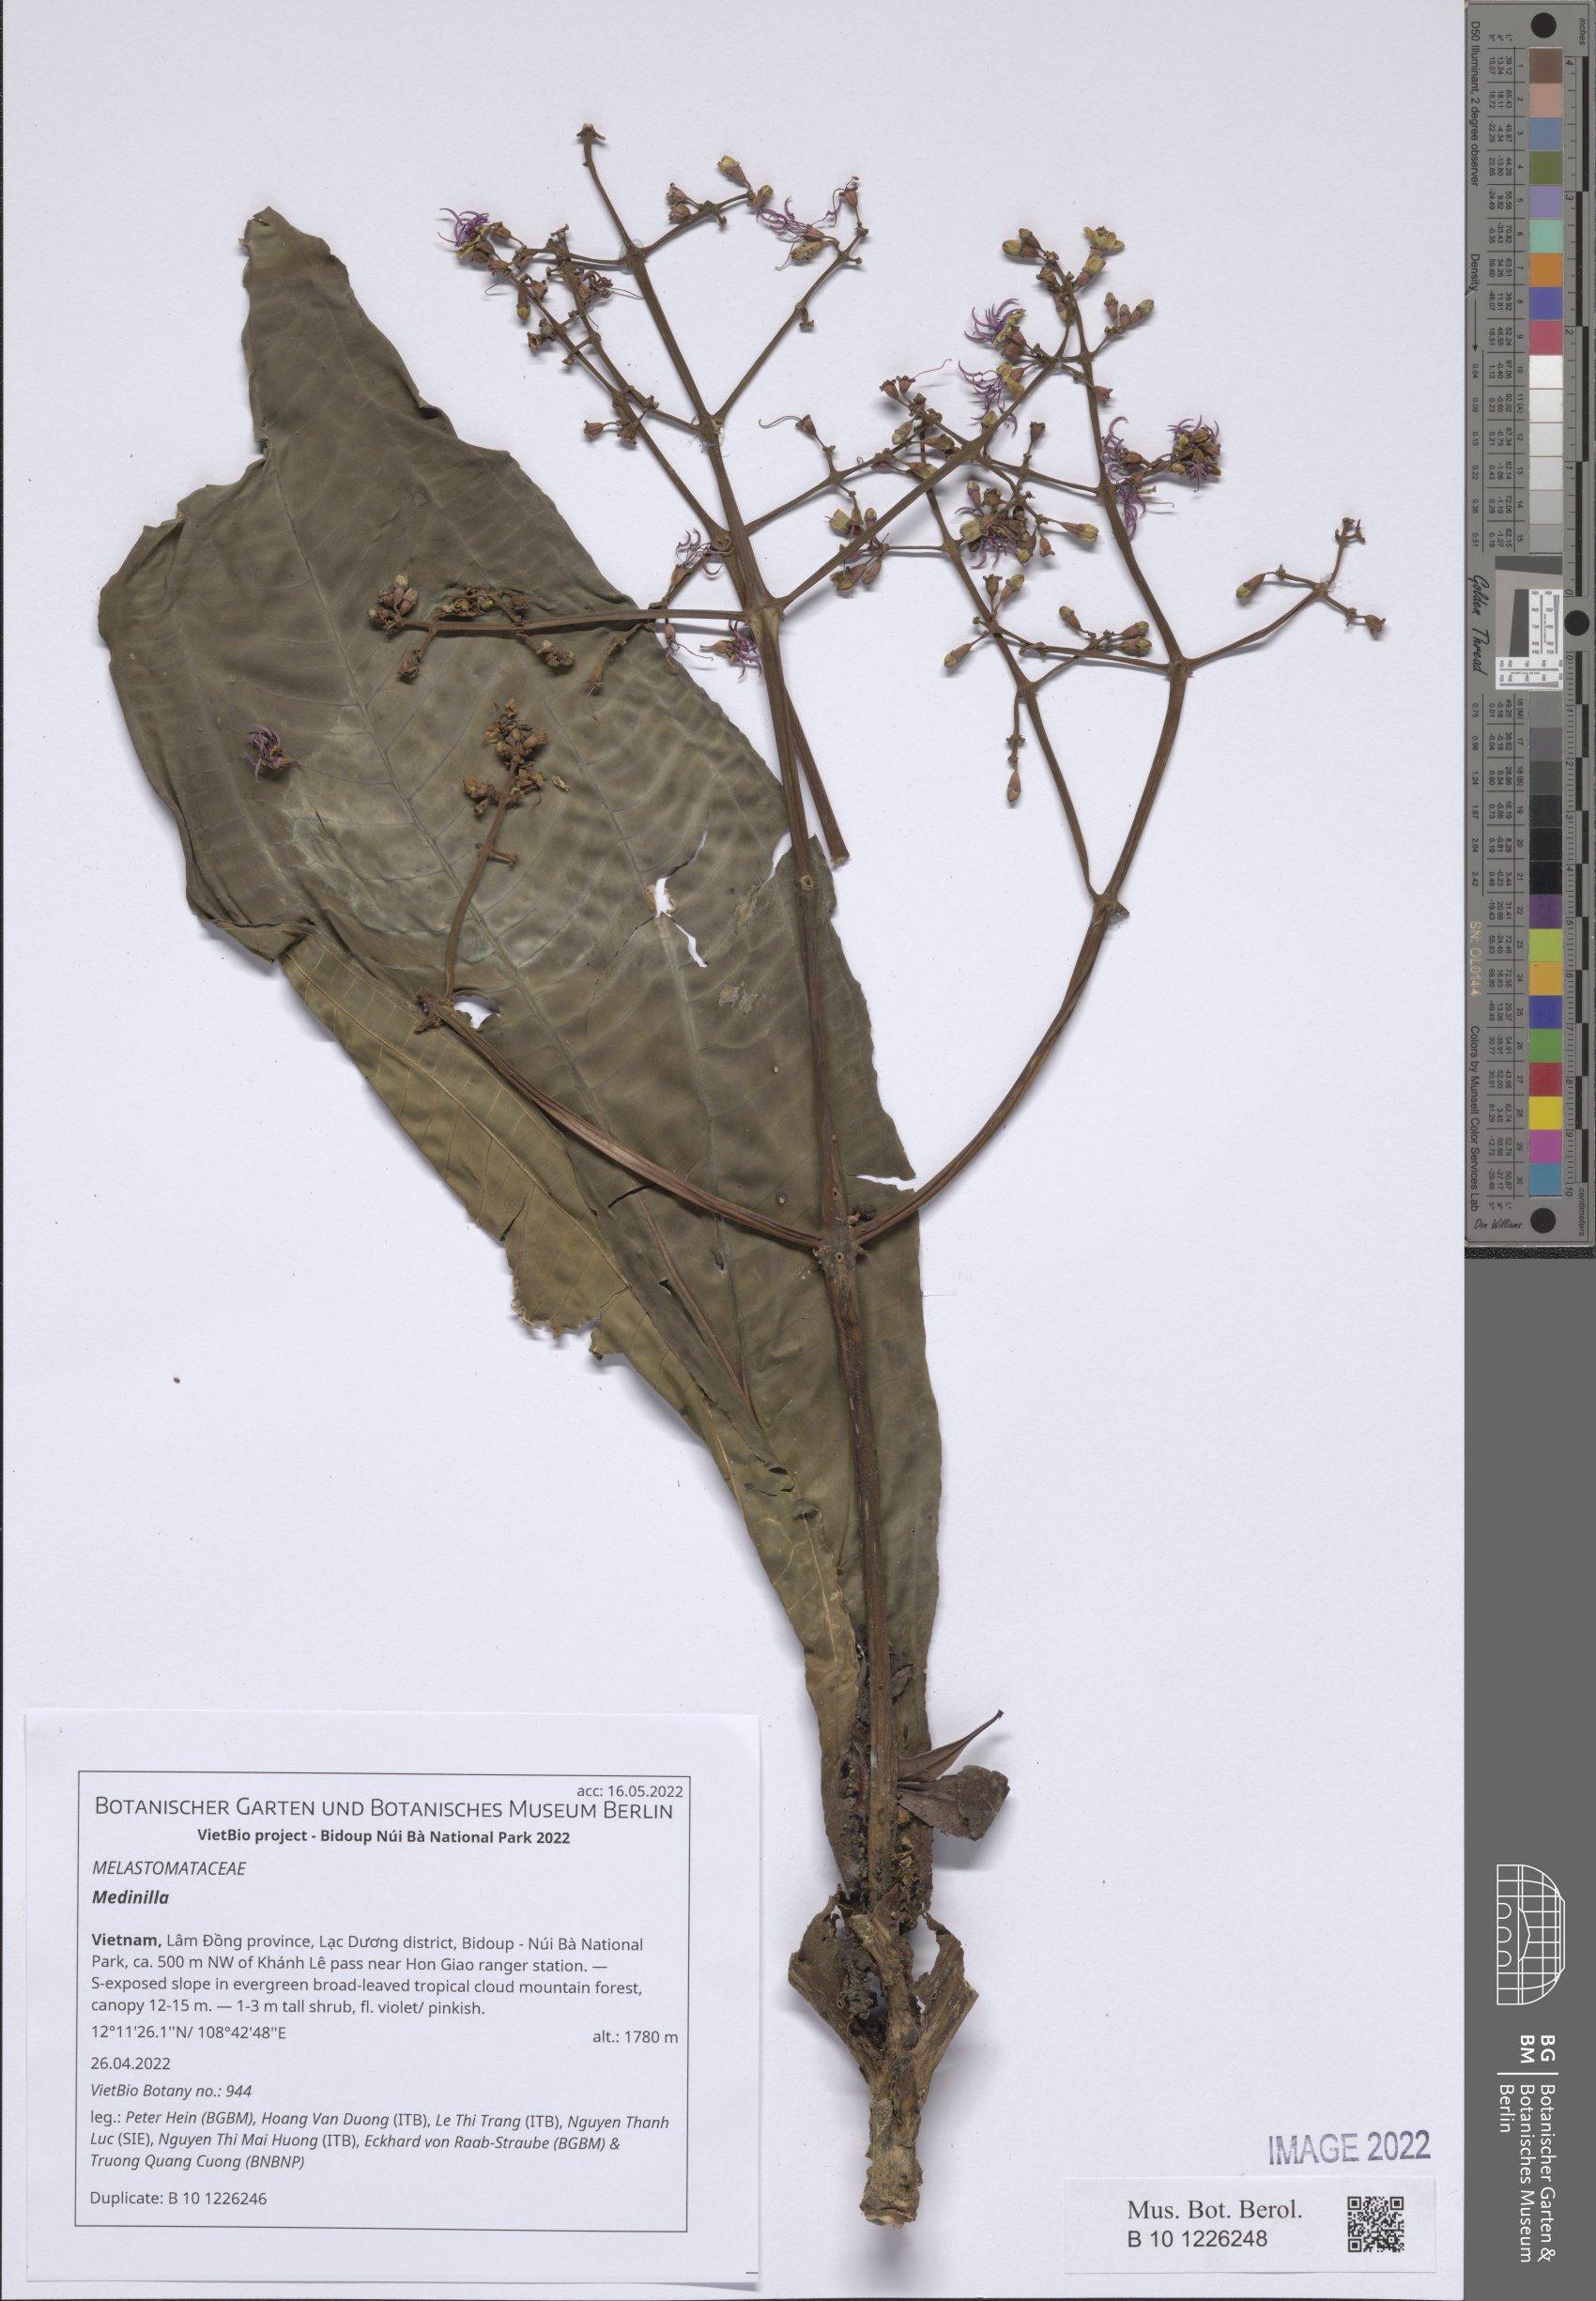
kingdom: Plantae
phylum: Tracheophyta
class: Magnoliopsida
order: Myrtales
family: Melastomataceae
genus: Medinilla
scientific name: Medinilla
